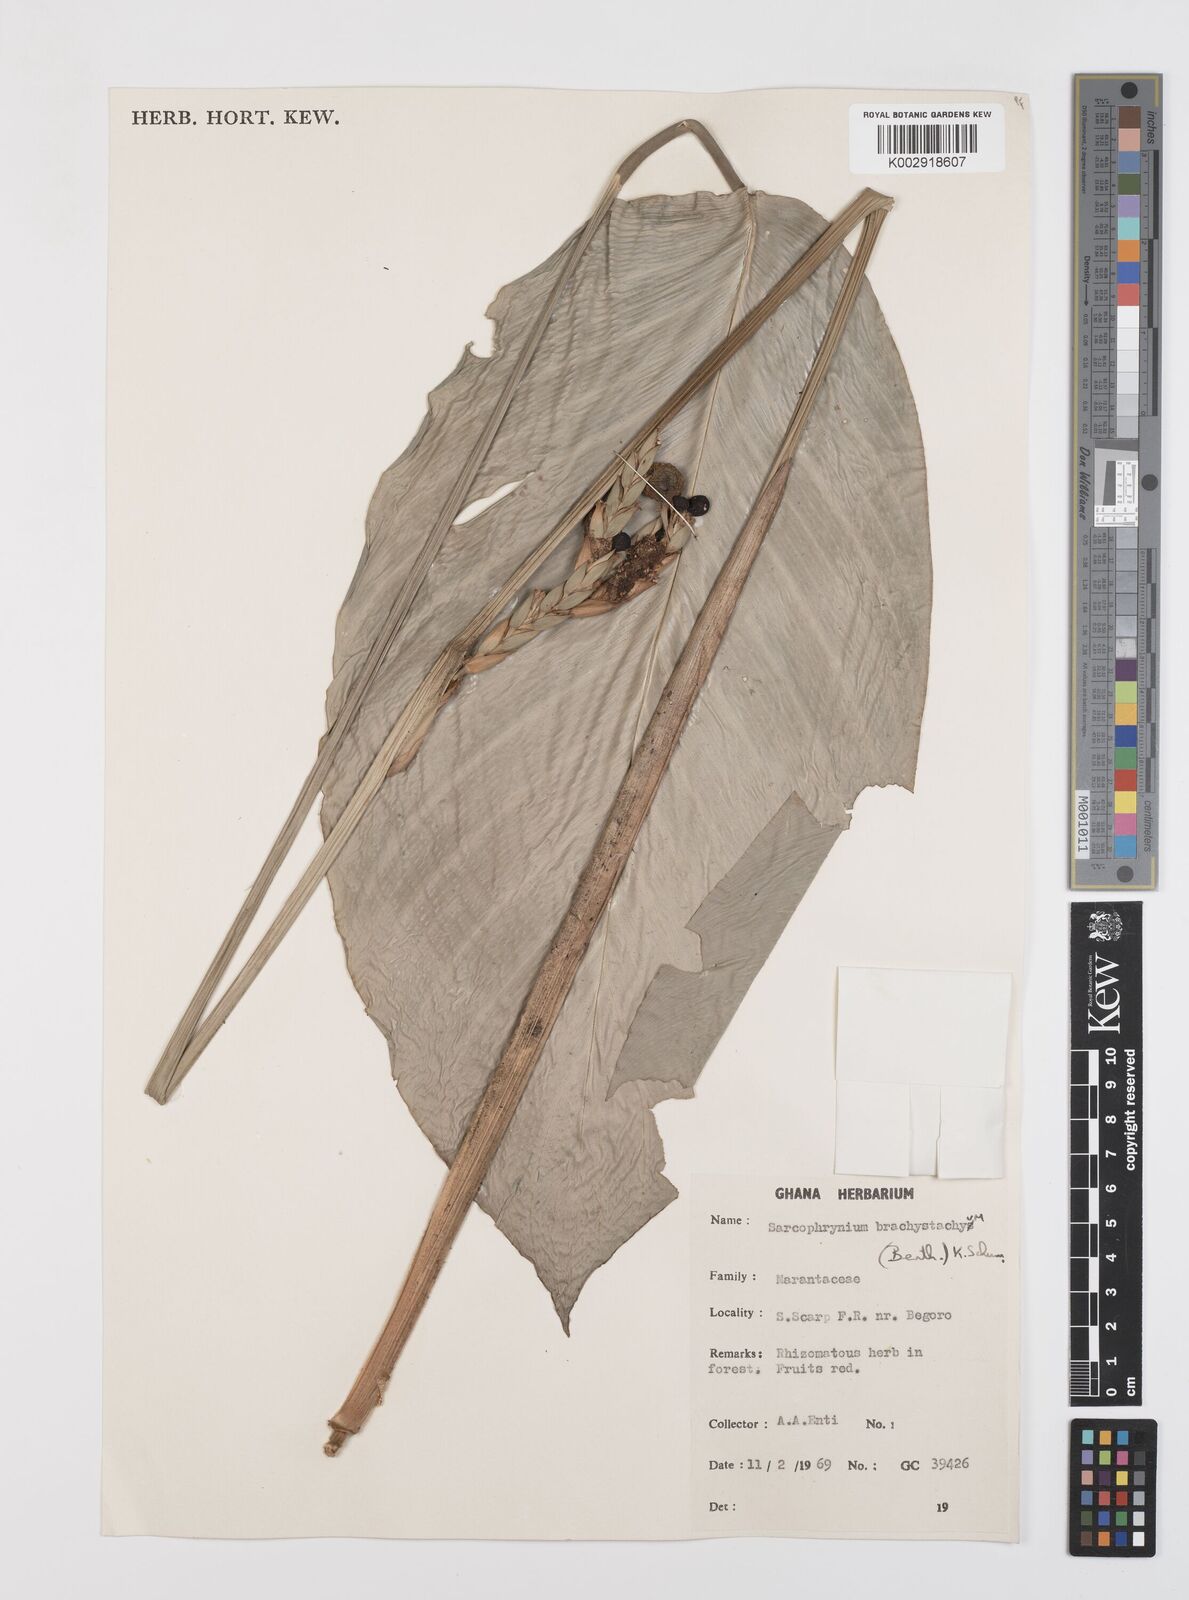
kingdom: Plantae
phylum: Tracheophyta
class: Liliopsida
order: Zingiberales
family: Marantaceae
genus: Sarcophrynium
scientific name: Sarcophrynium brachystachyum
